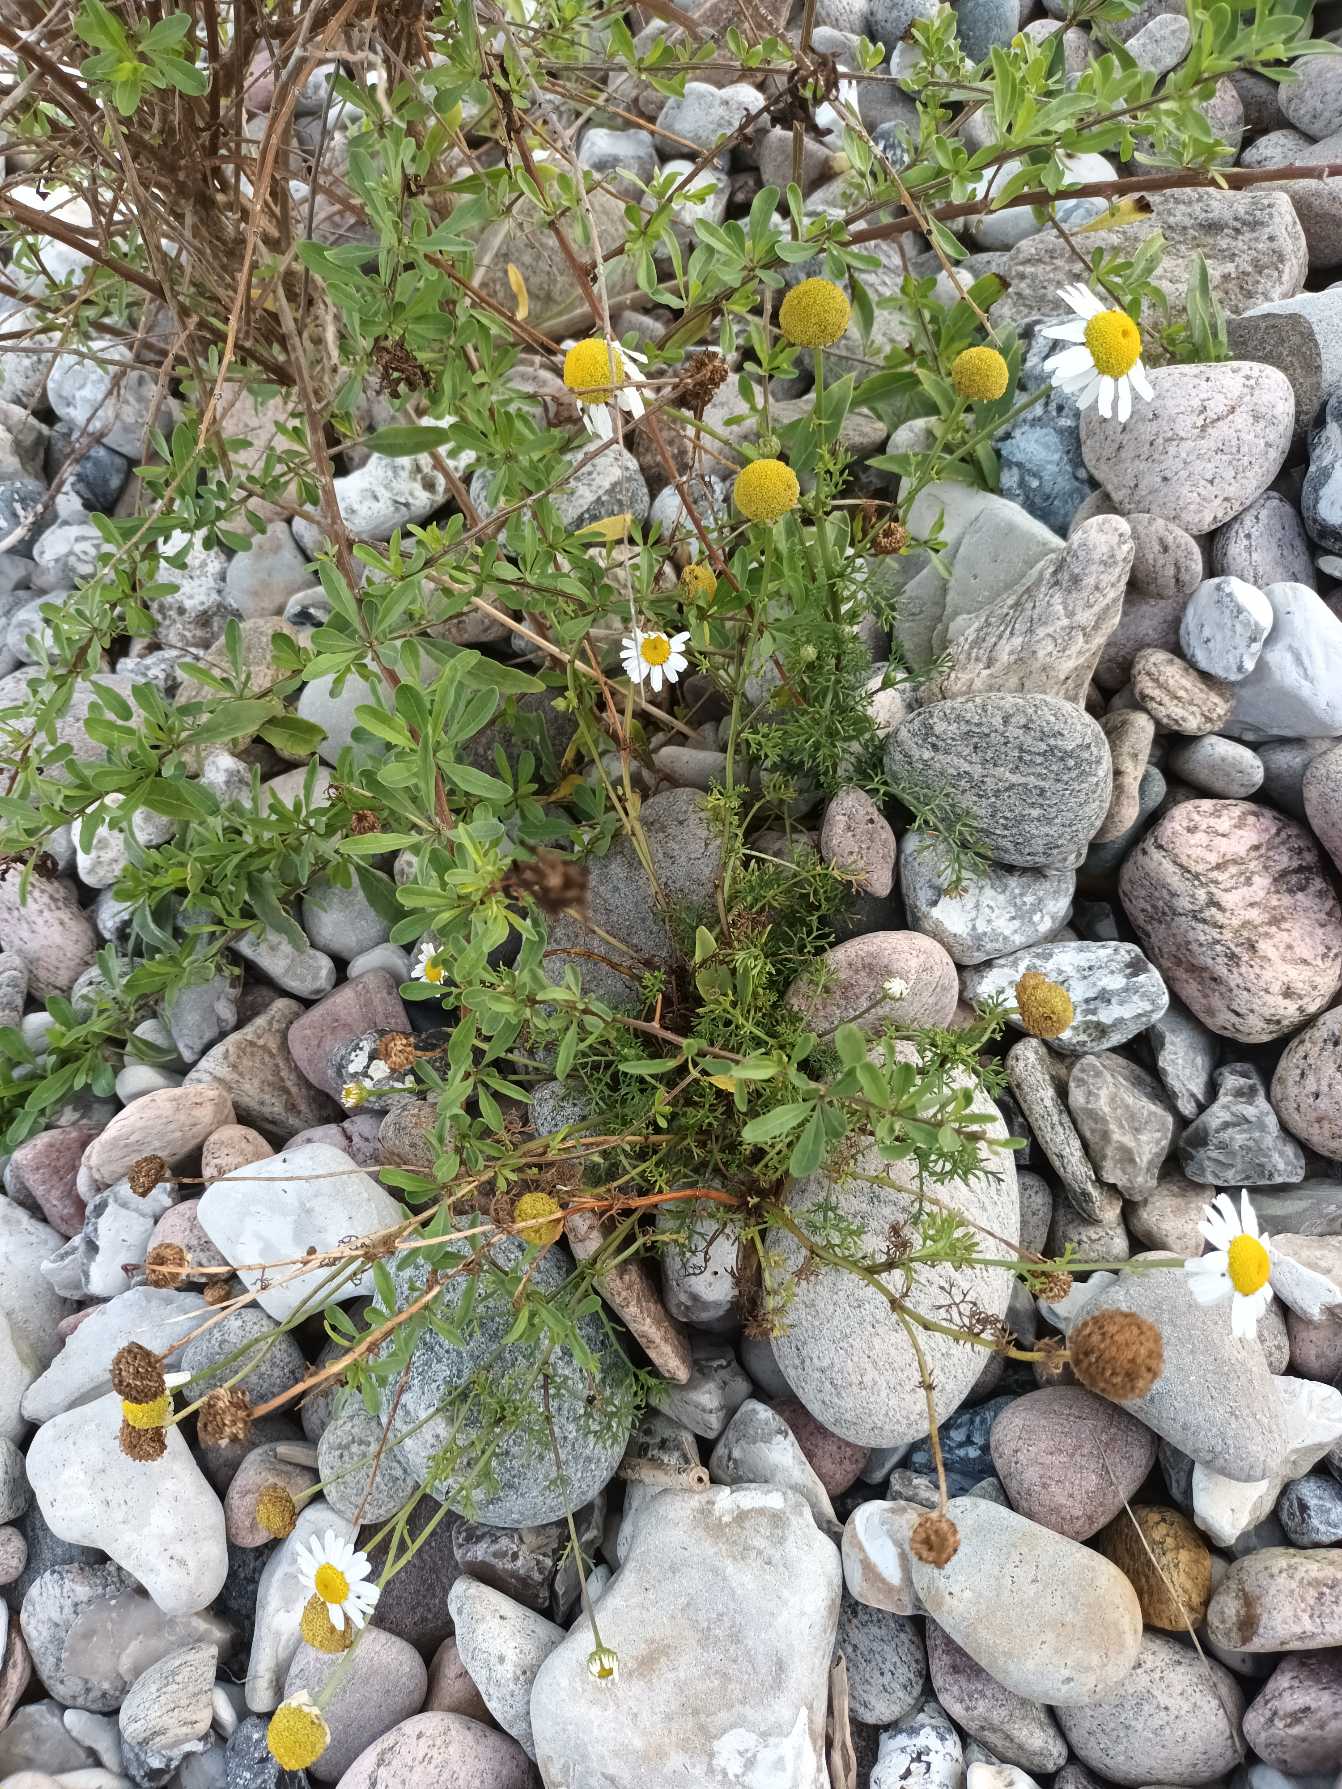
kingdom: Plantae
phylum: Tracheophyta
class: Magnoliopsida
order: Asterales
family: Asteraceae
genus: Tripleurospermum
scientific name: Tripleurospermum maritimum
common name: Strand-kamille
